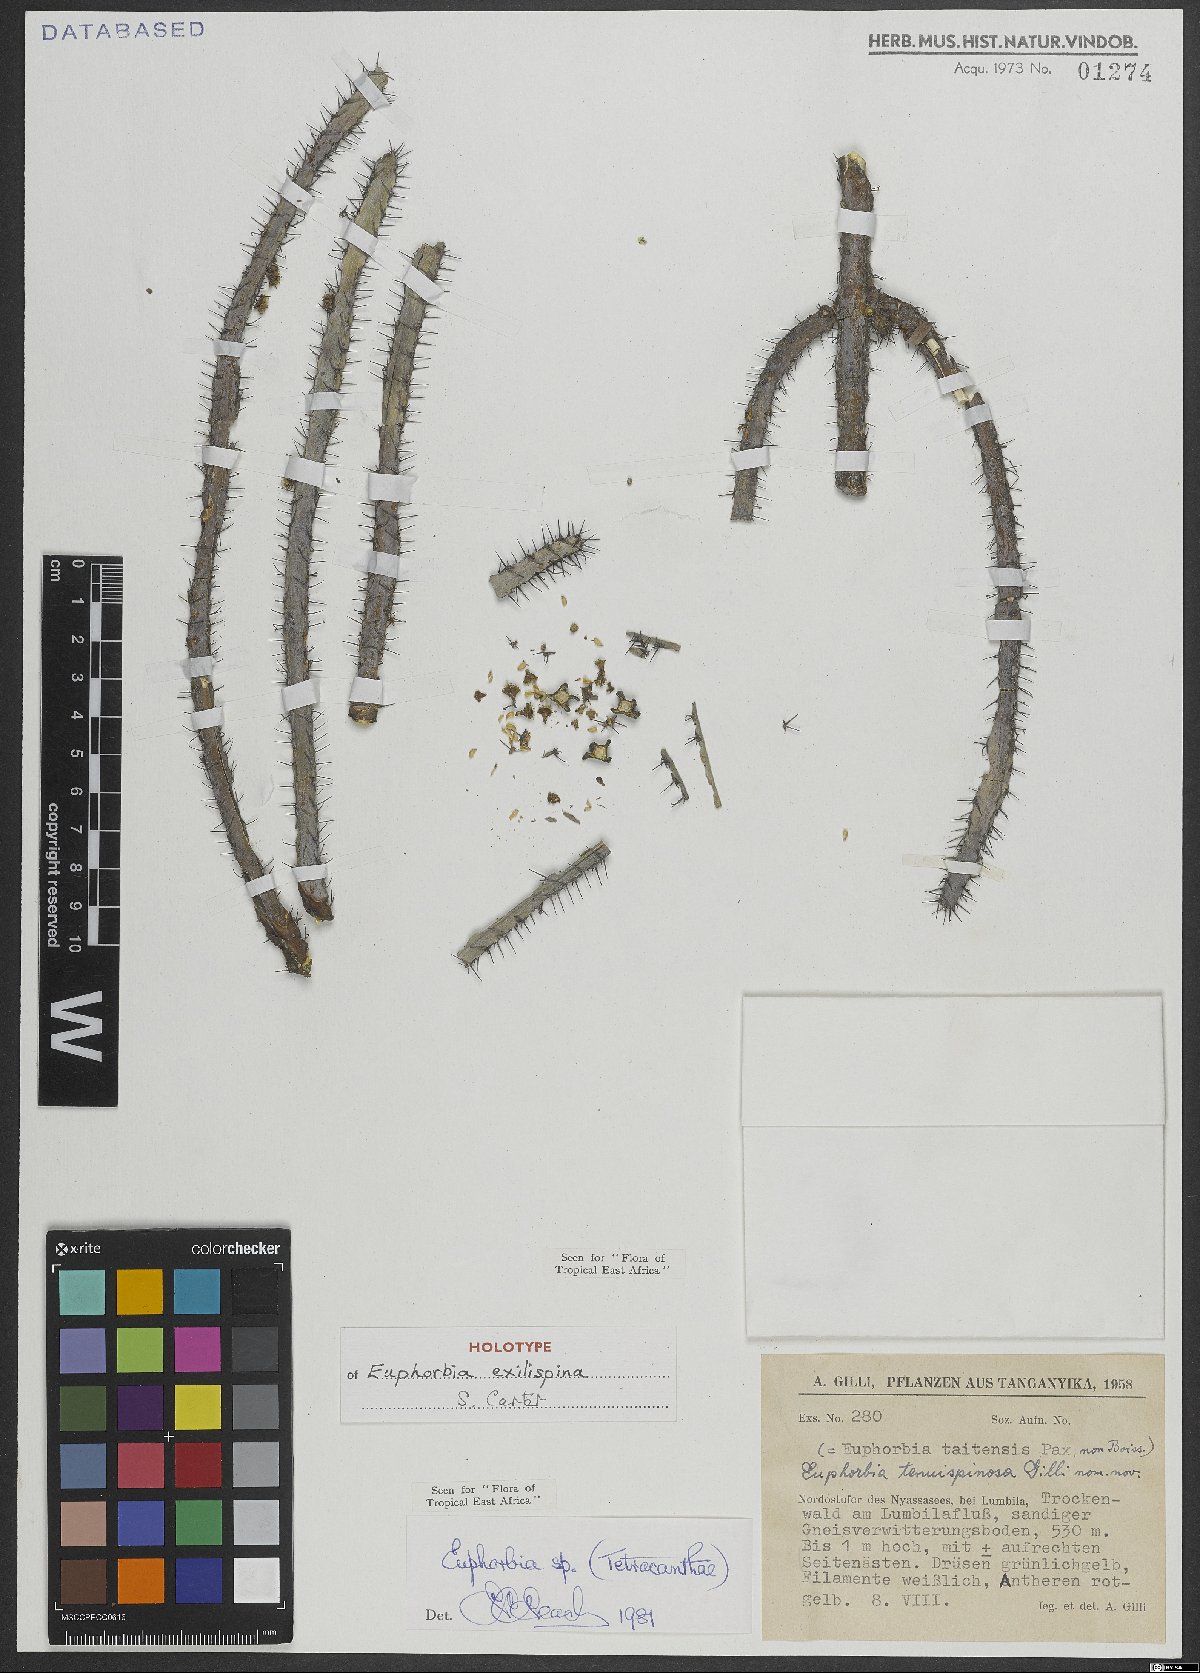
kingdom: Plantae
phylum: Tracheophyta
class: Magnoliopsida
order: Malpighiales
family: Euphorbiaceae
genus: Euphorbia
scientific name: Euphorbia exilispina
